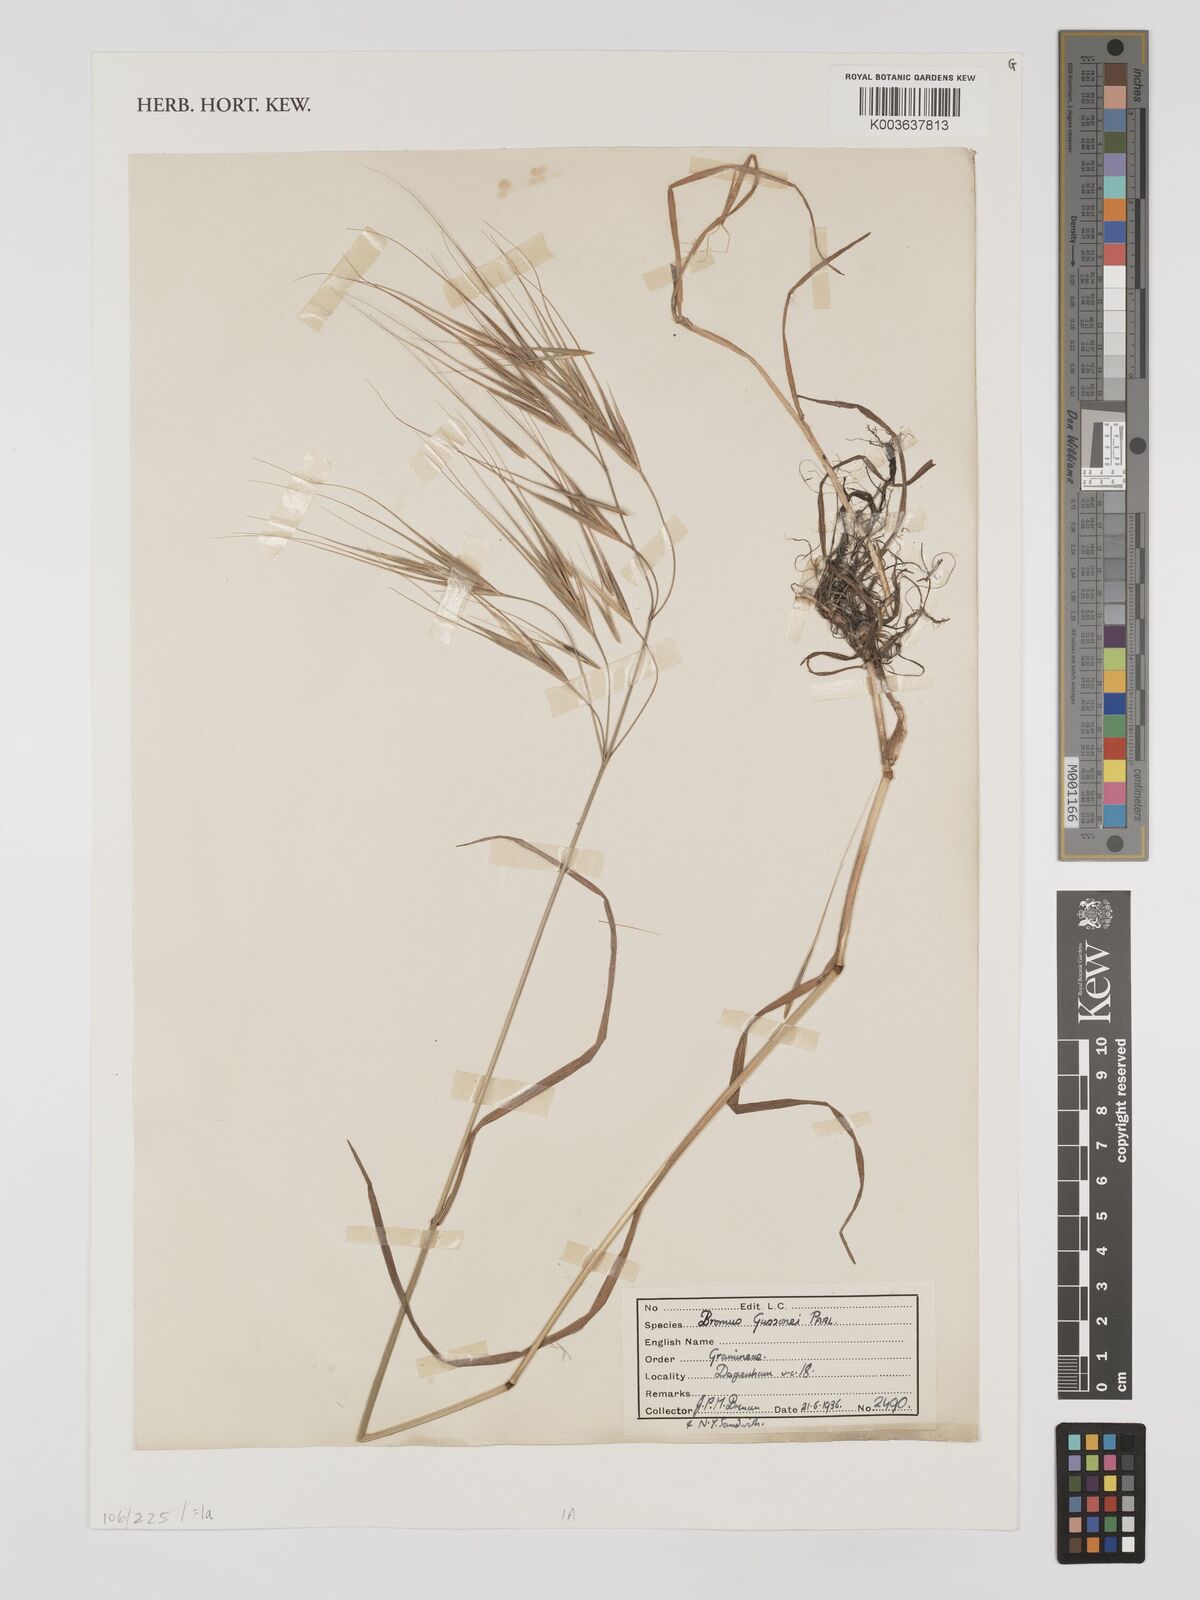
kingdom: Plantae
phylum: Tracheophyta
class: Liliopsida
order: Poales
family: Poaceae
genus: Bromus
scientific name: Bromus
